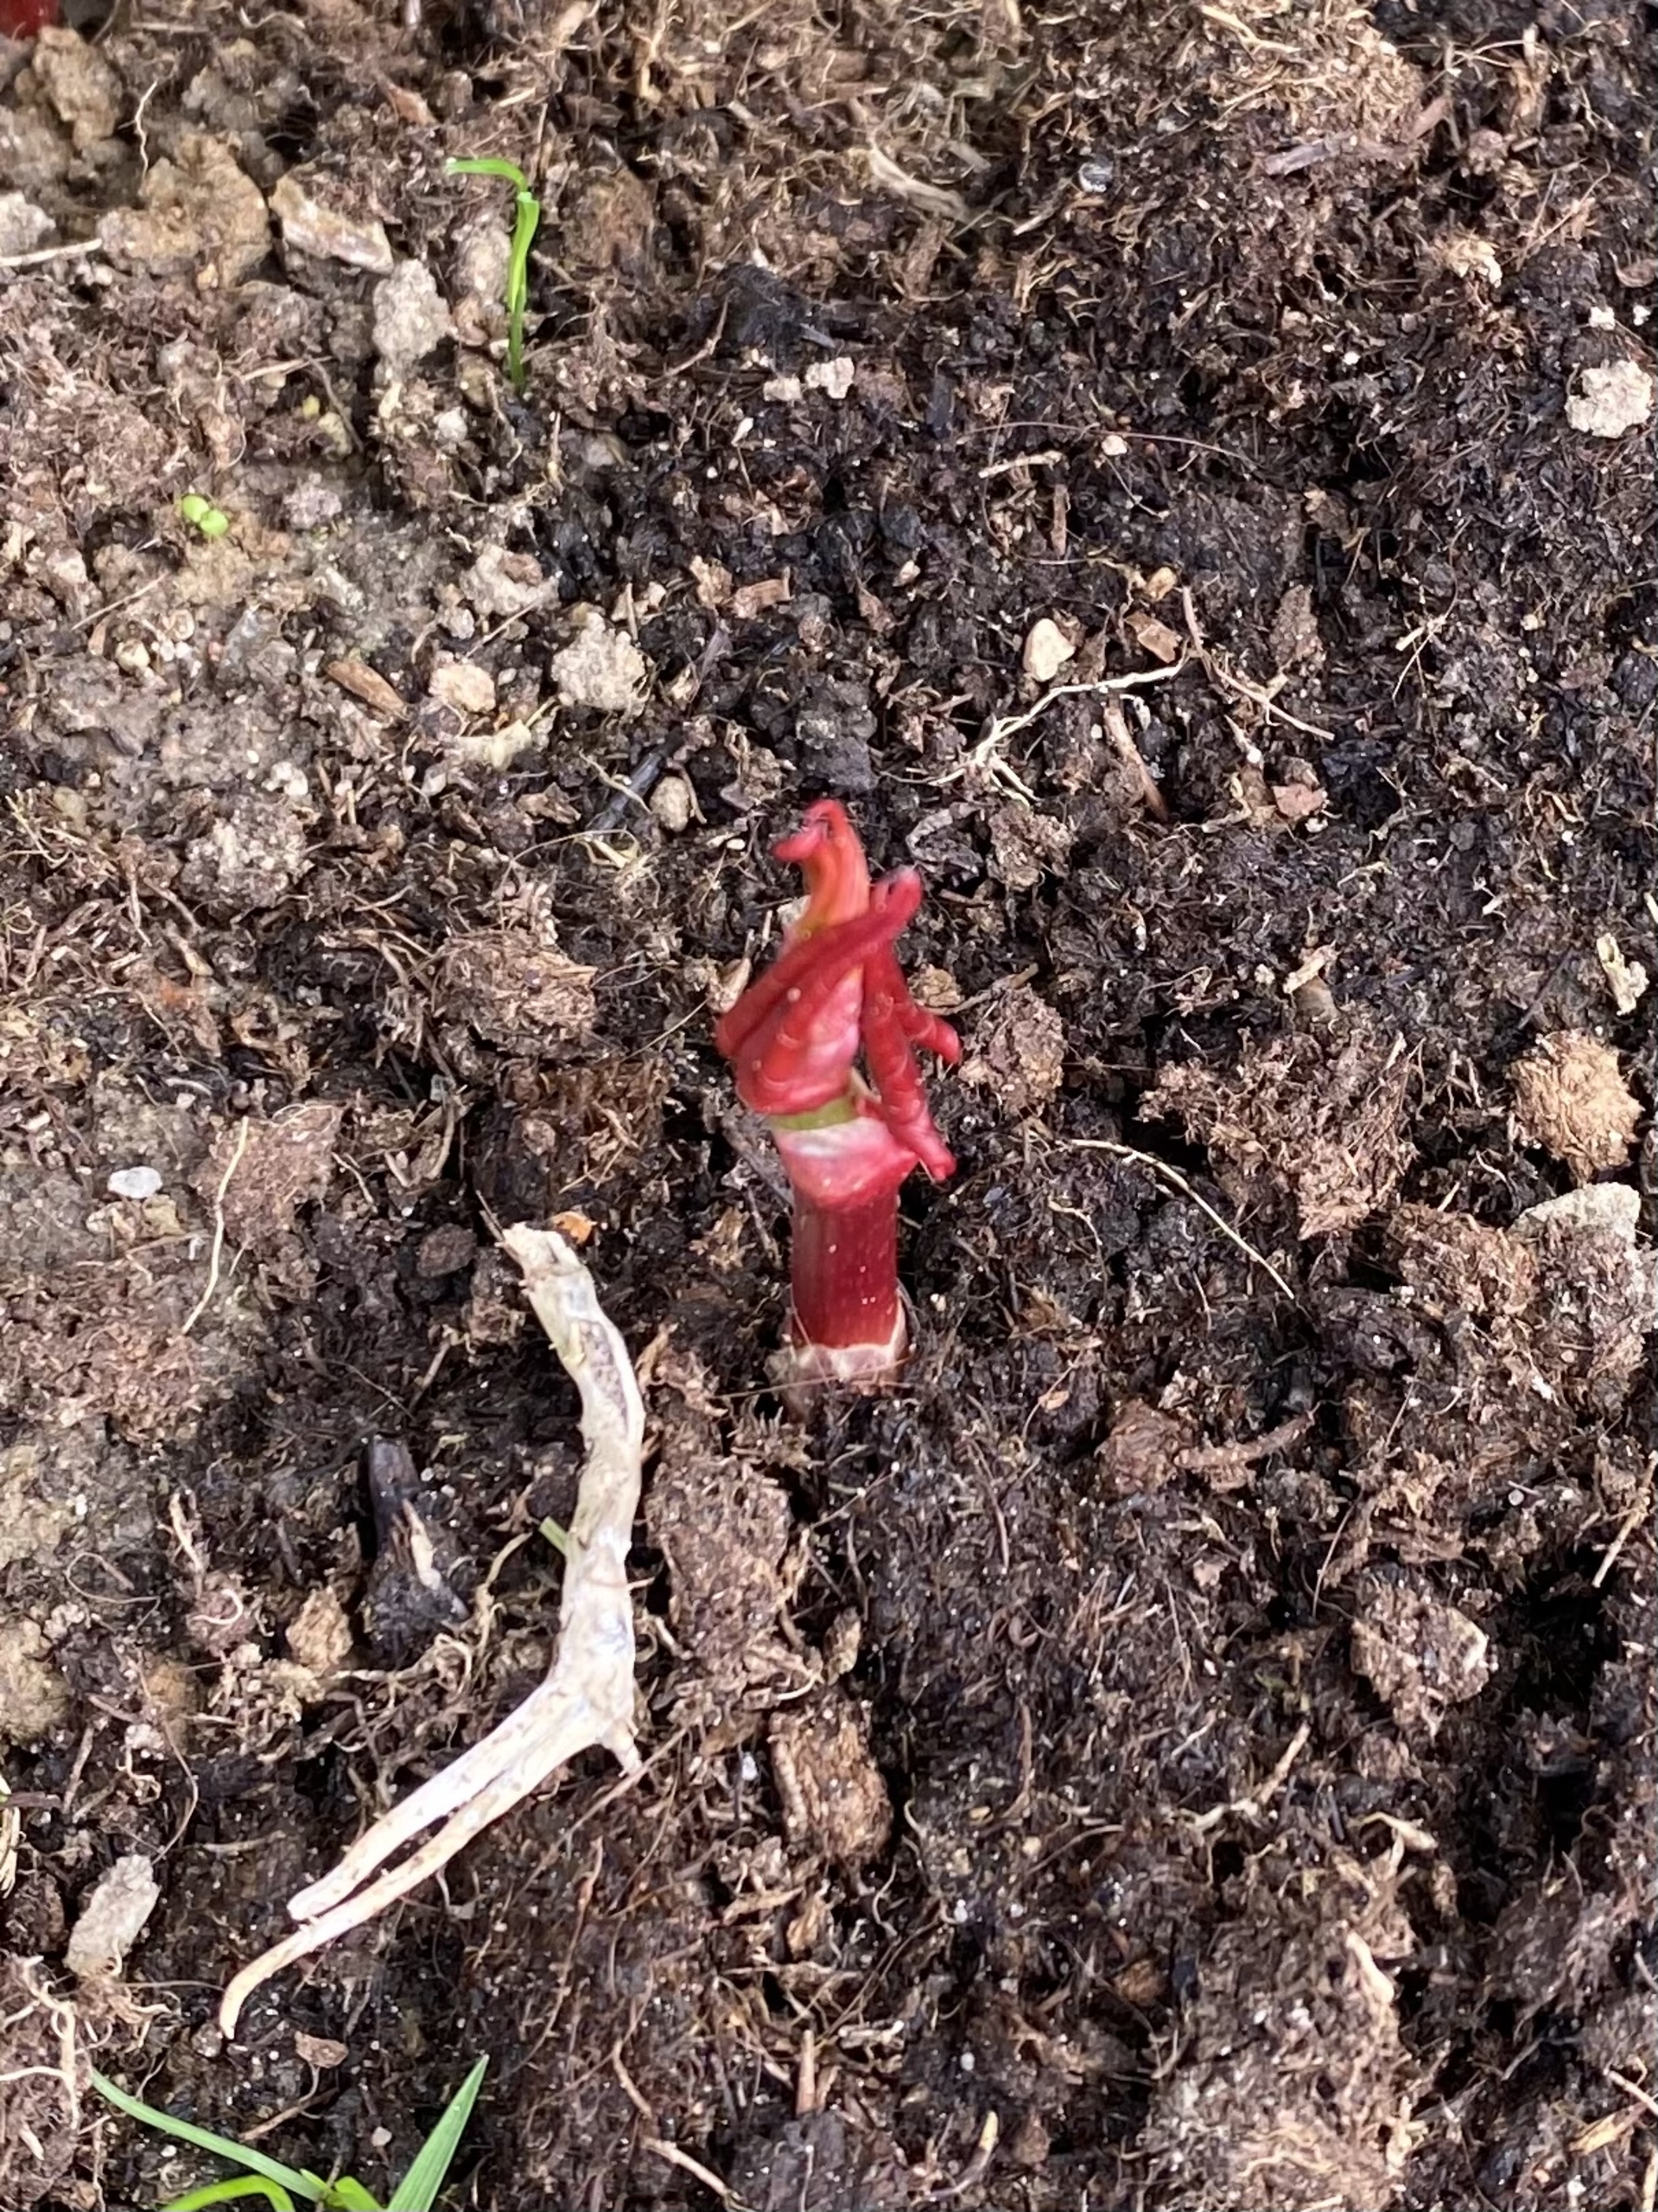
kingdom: Plantae
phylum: Tracheophyta
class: Magnoliopsida
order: Caryophyllales
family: Polygonaceae
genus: Reynoutria
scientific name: Reynoutria japonica
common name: Japan-pileurt
